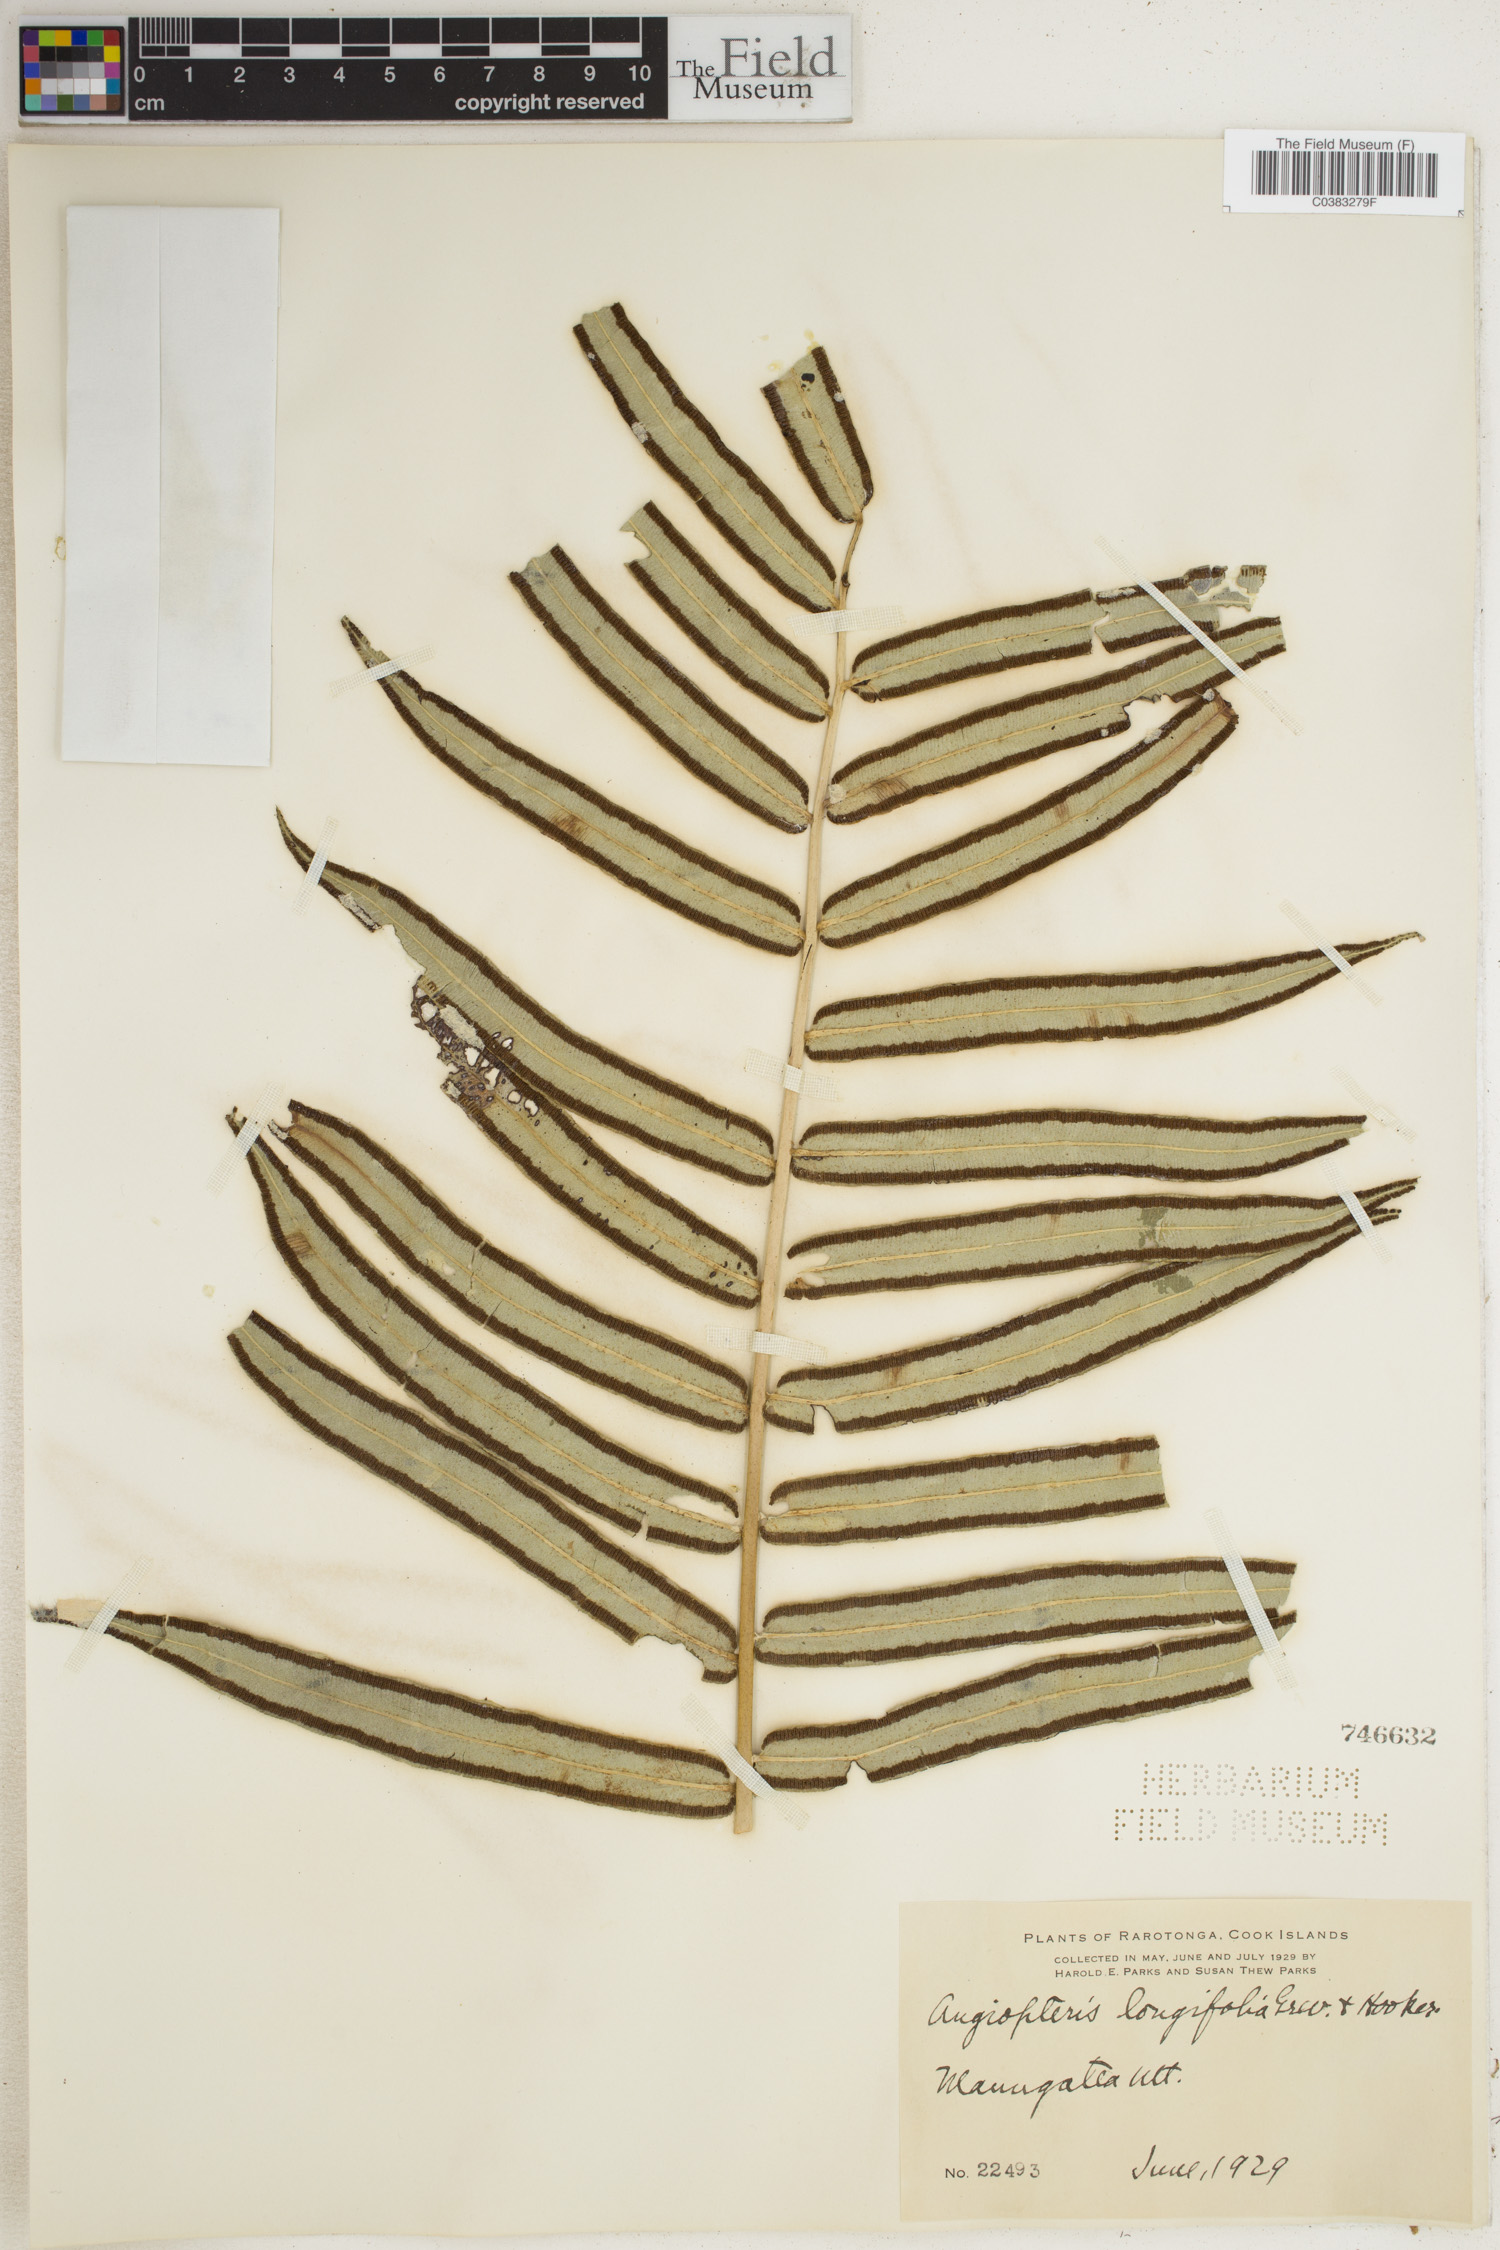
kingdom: Plantae
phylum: Tracheophyta
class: Polypodiopsida
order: Polypodiales
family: Thelypteridaceae
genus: Meniscium
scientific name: Meniscium longifolium
